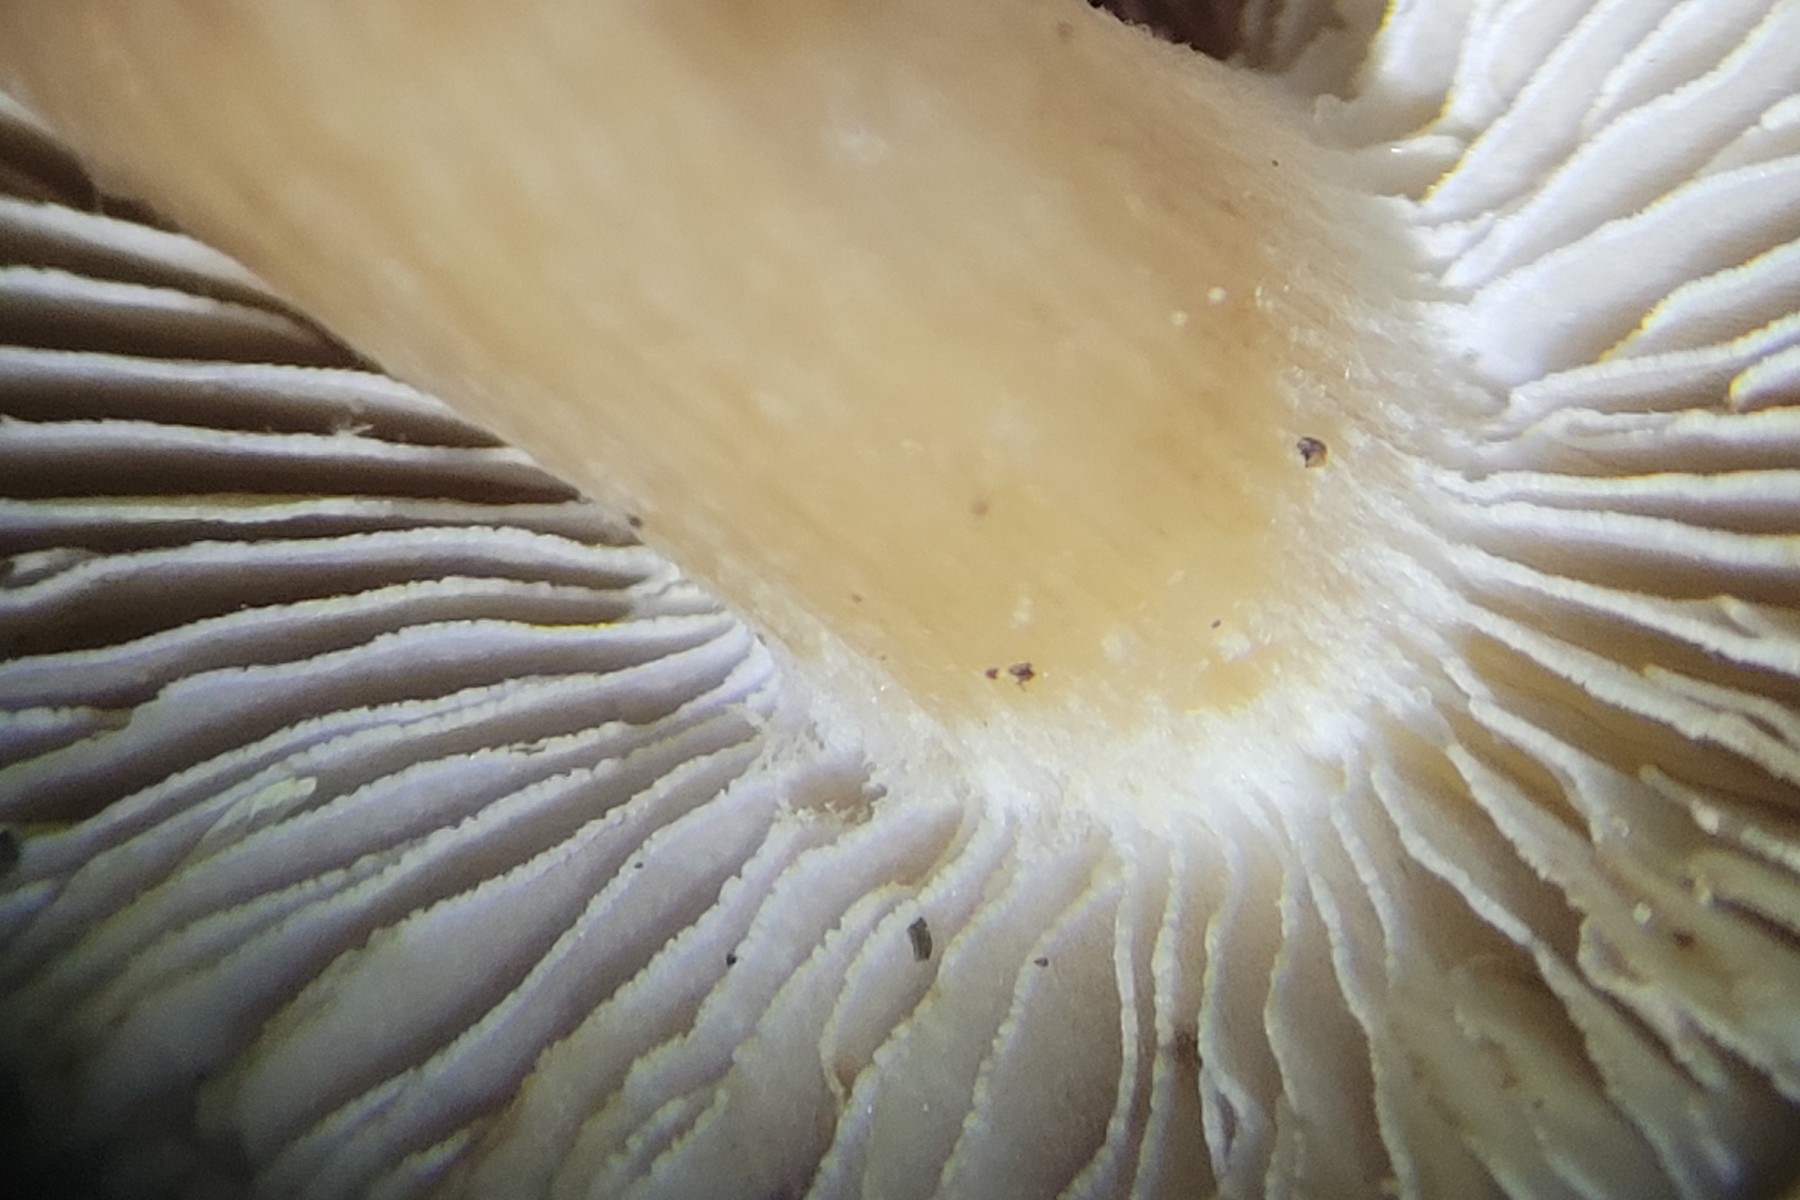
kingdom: Fungi
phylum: Basidiomycota
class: Agaricomycetes
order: Agaricales
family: Inocybaceae
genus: Inocybe
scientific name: Inocybe melanopoda
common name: sortfodet trævlhat
